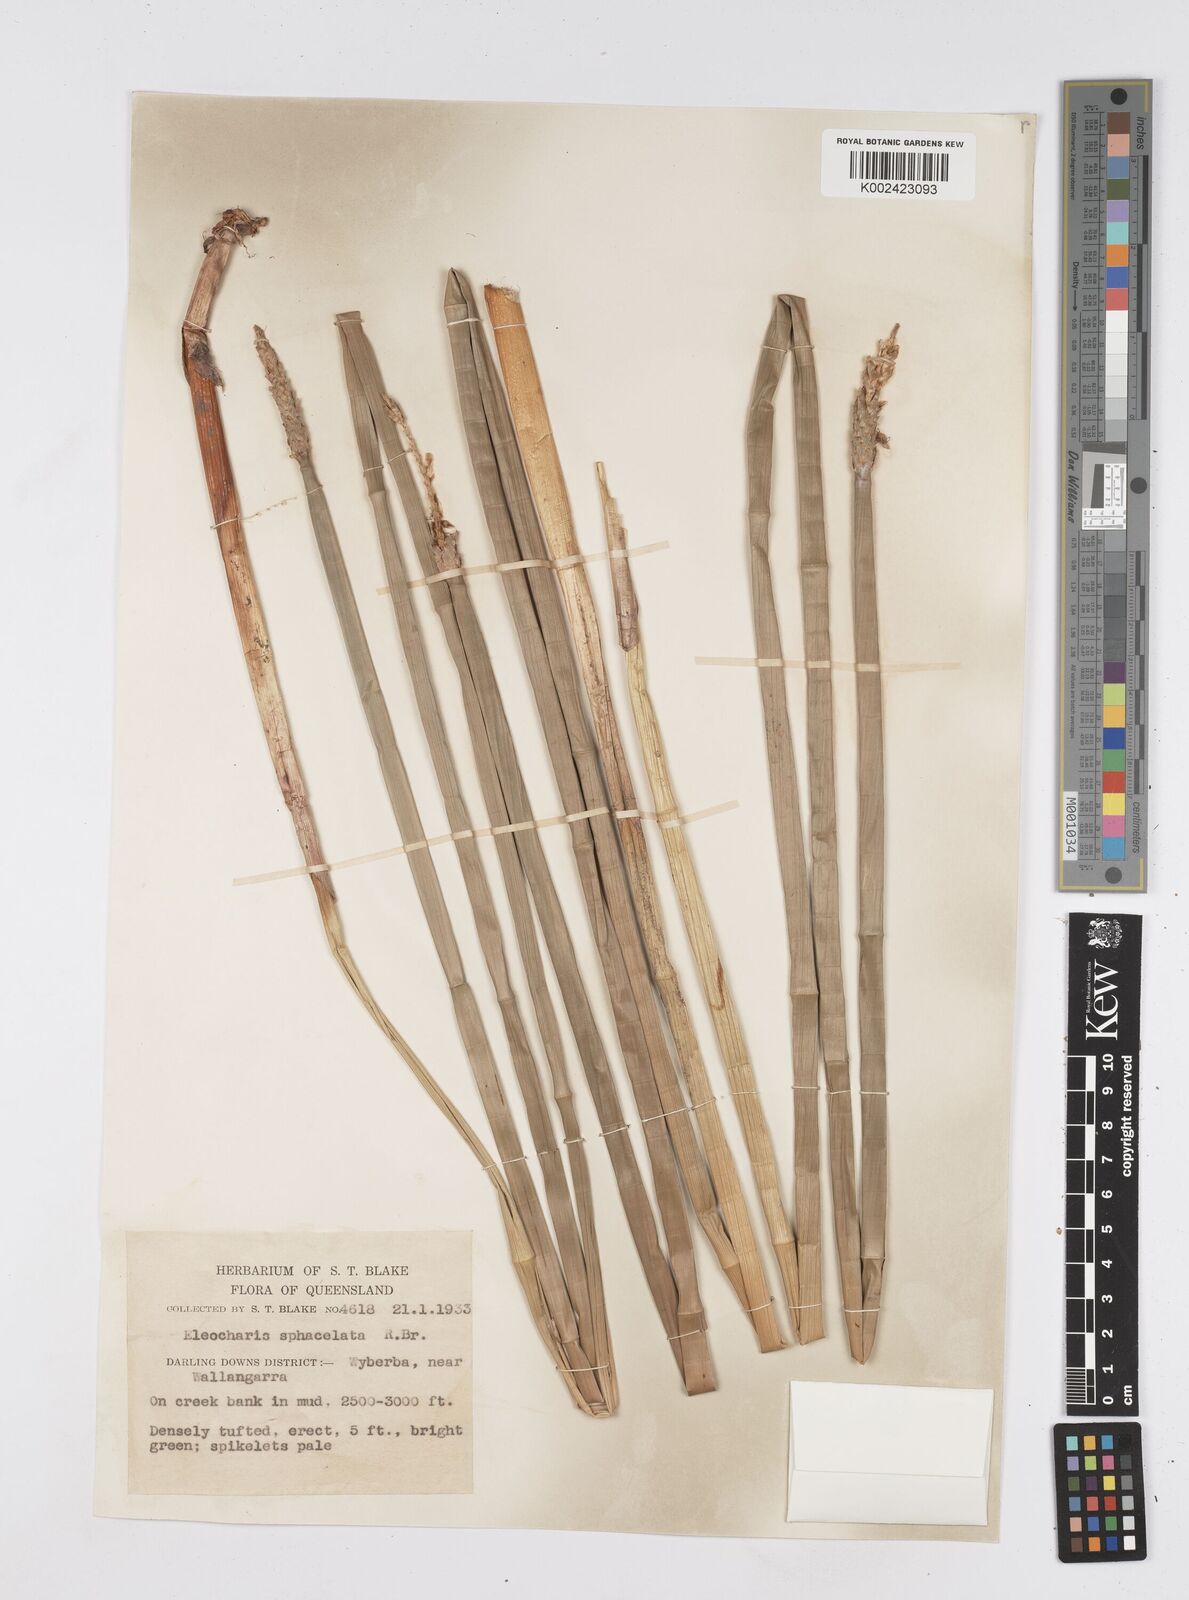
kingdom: Plantae
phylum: Tracheophyta
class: Liliopsida
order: Poales
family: Cyperaceae
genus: Eleocharis
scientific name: Eleocharis sphacelata
